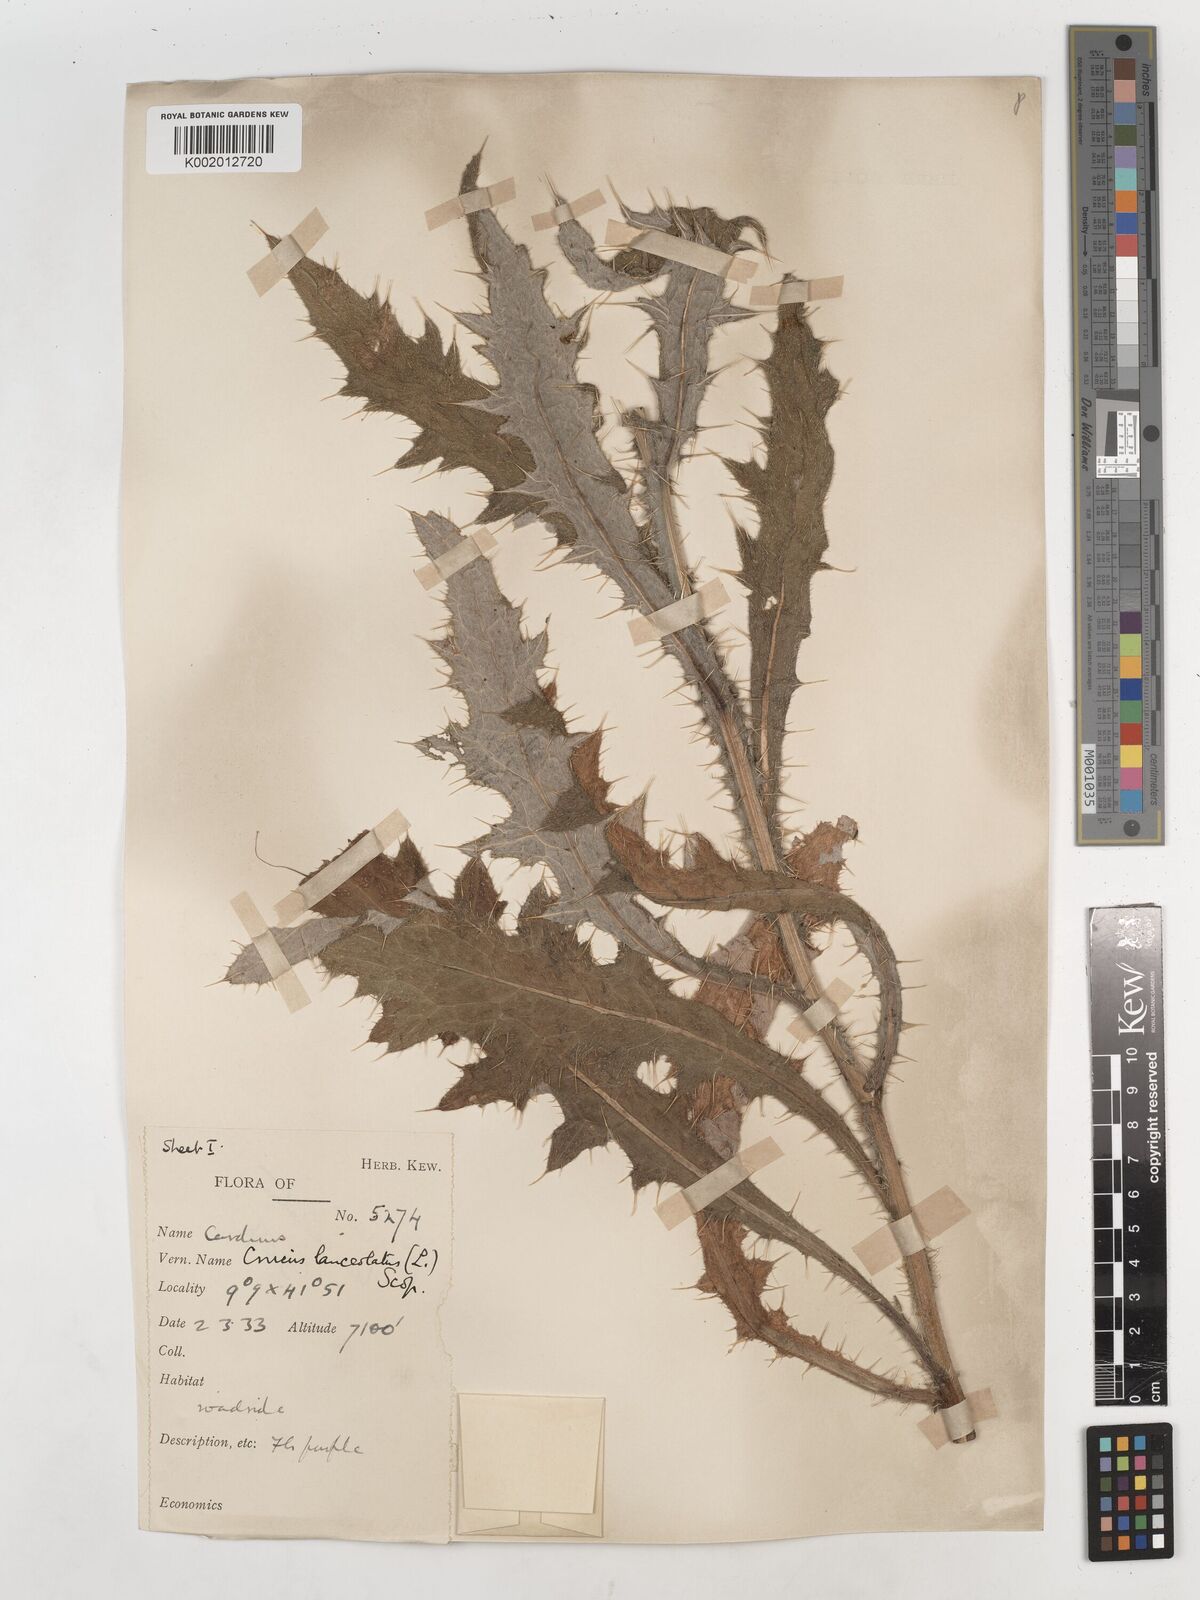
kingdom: Plantae
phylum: Tracheophyta
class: Magnoliopsida
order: Asterales
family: Asteraceae
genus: Cirsium
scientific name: Cirsium vulgare
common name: Bull thistle
